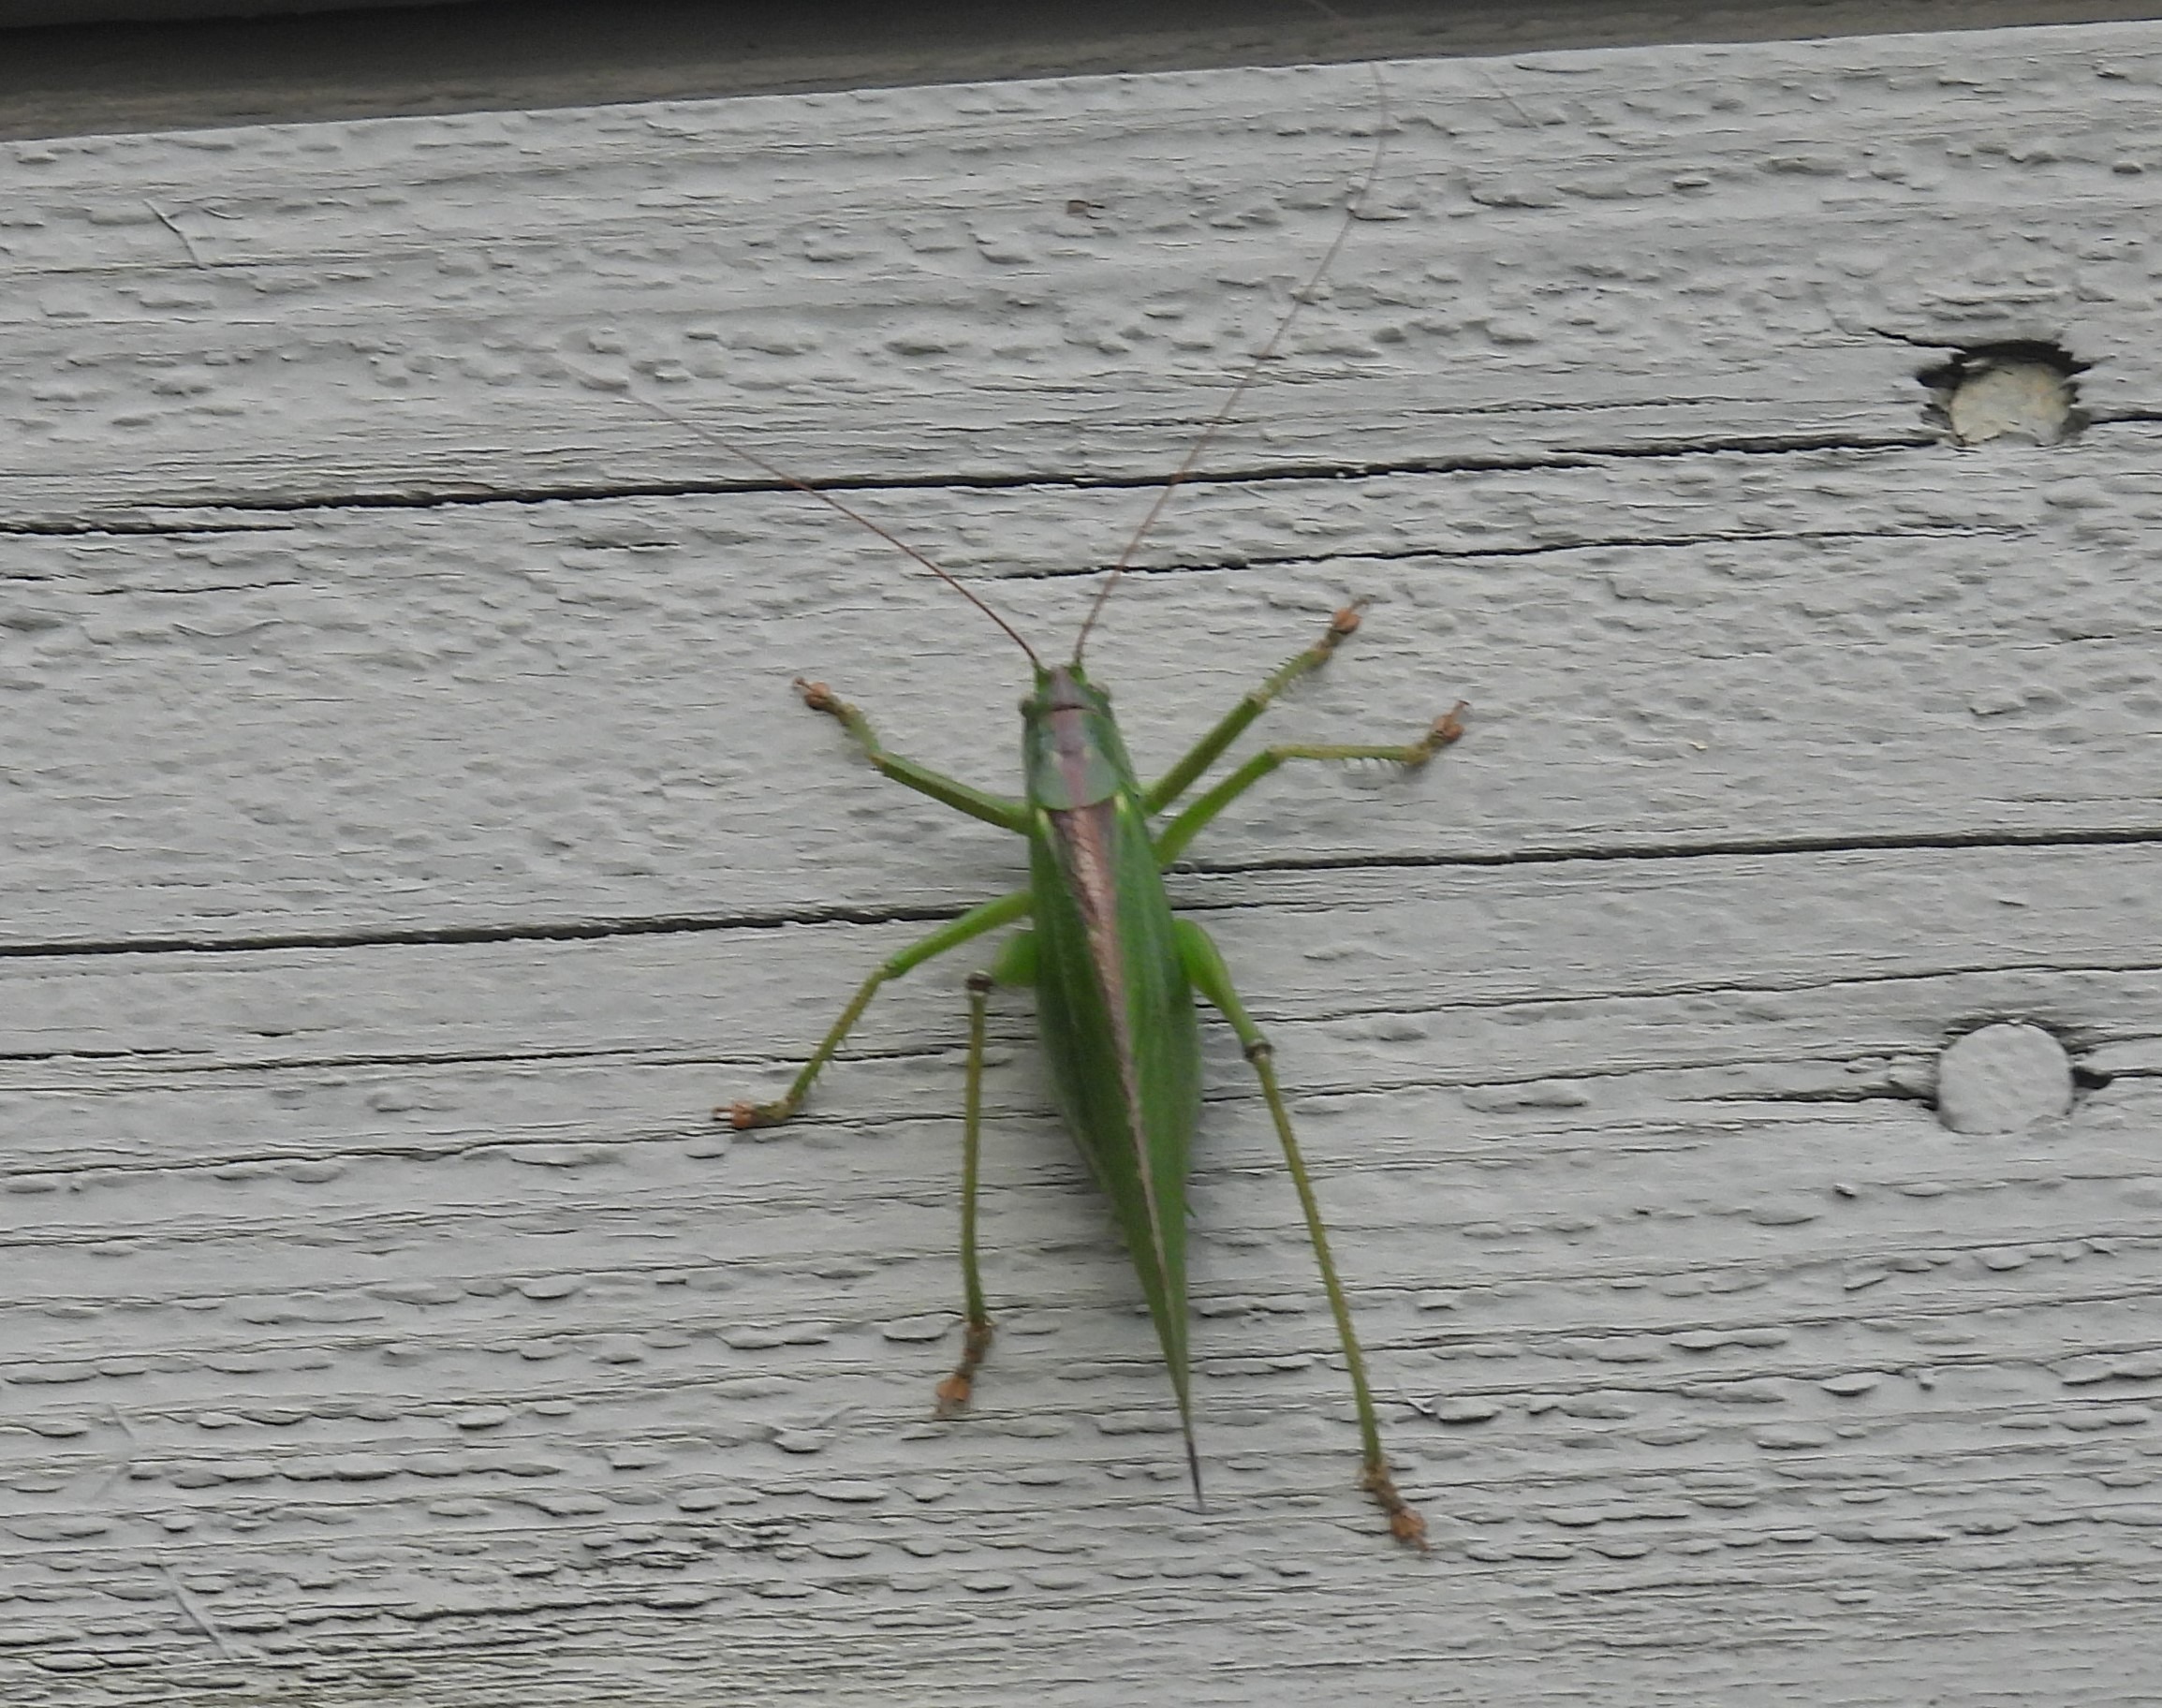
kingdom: Animalia
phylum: Arthropoda
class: Insecta
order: Orthoptera
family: Tettigoniidae
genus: Tettigonia
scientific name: Tettigonia viridissima
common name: Stor grøn løvgræshoppe
